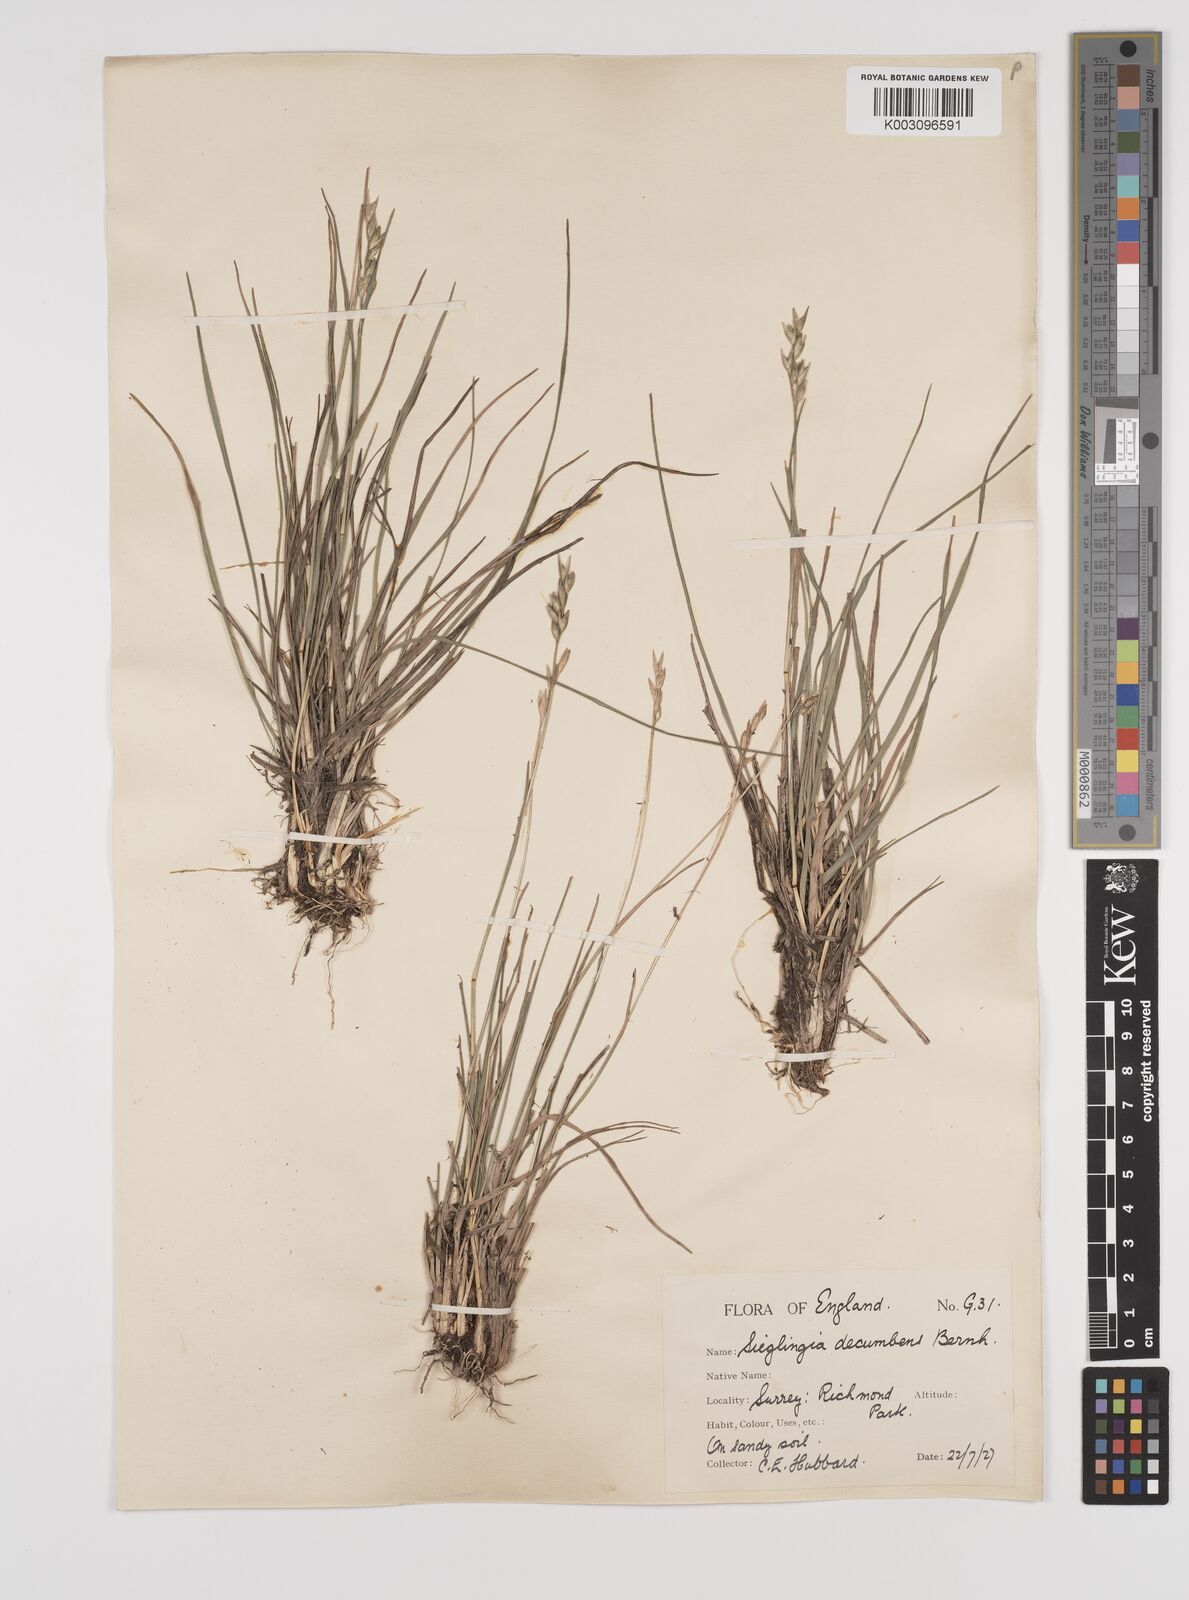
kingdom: Plantae
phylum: Tracheophyta
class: Liliopsida
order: Poales
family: Poaceae
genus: Danthonia
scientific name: Danthonia decumbens
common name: Common heathgrass
